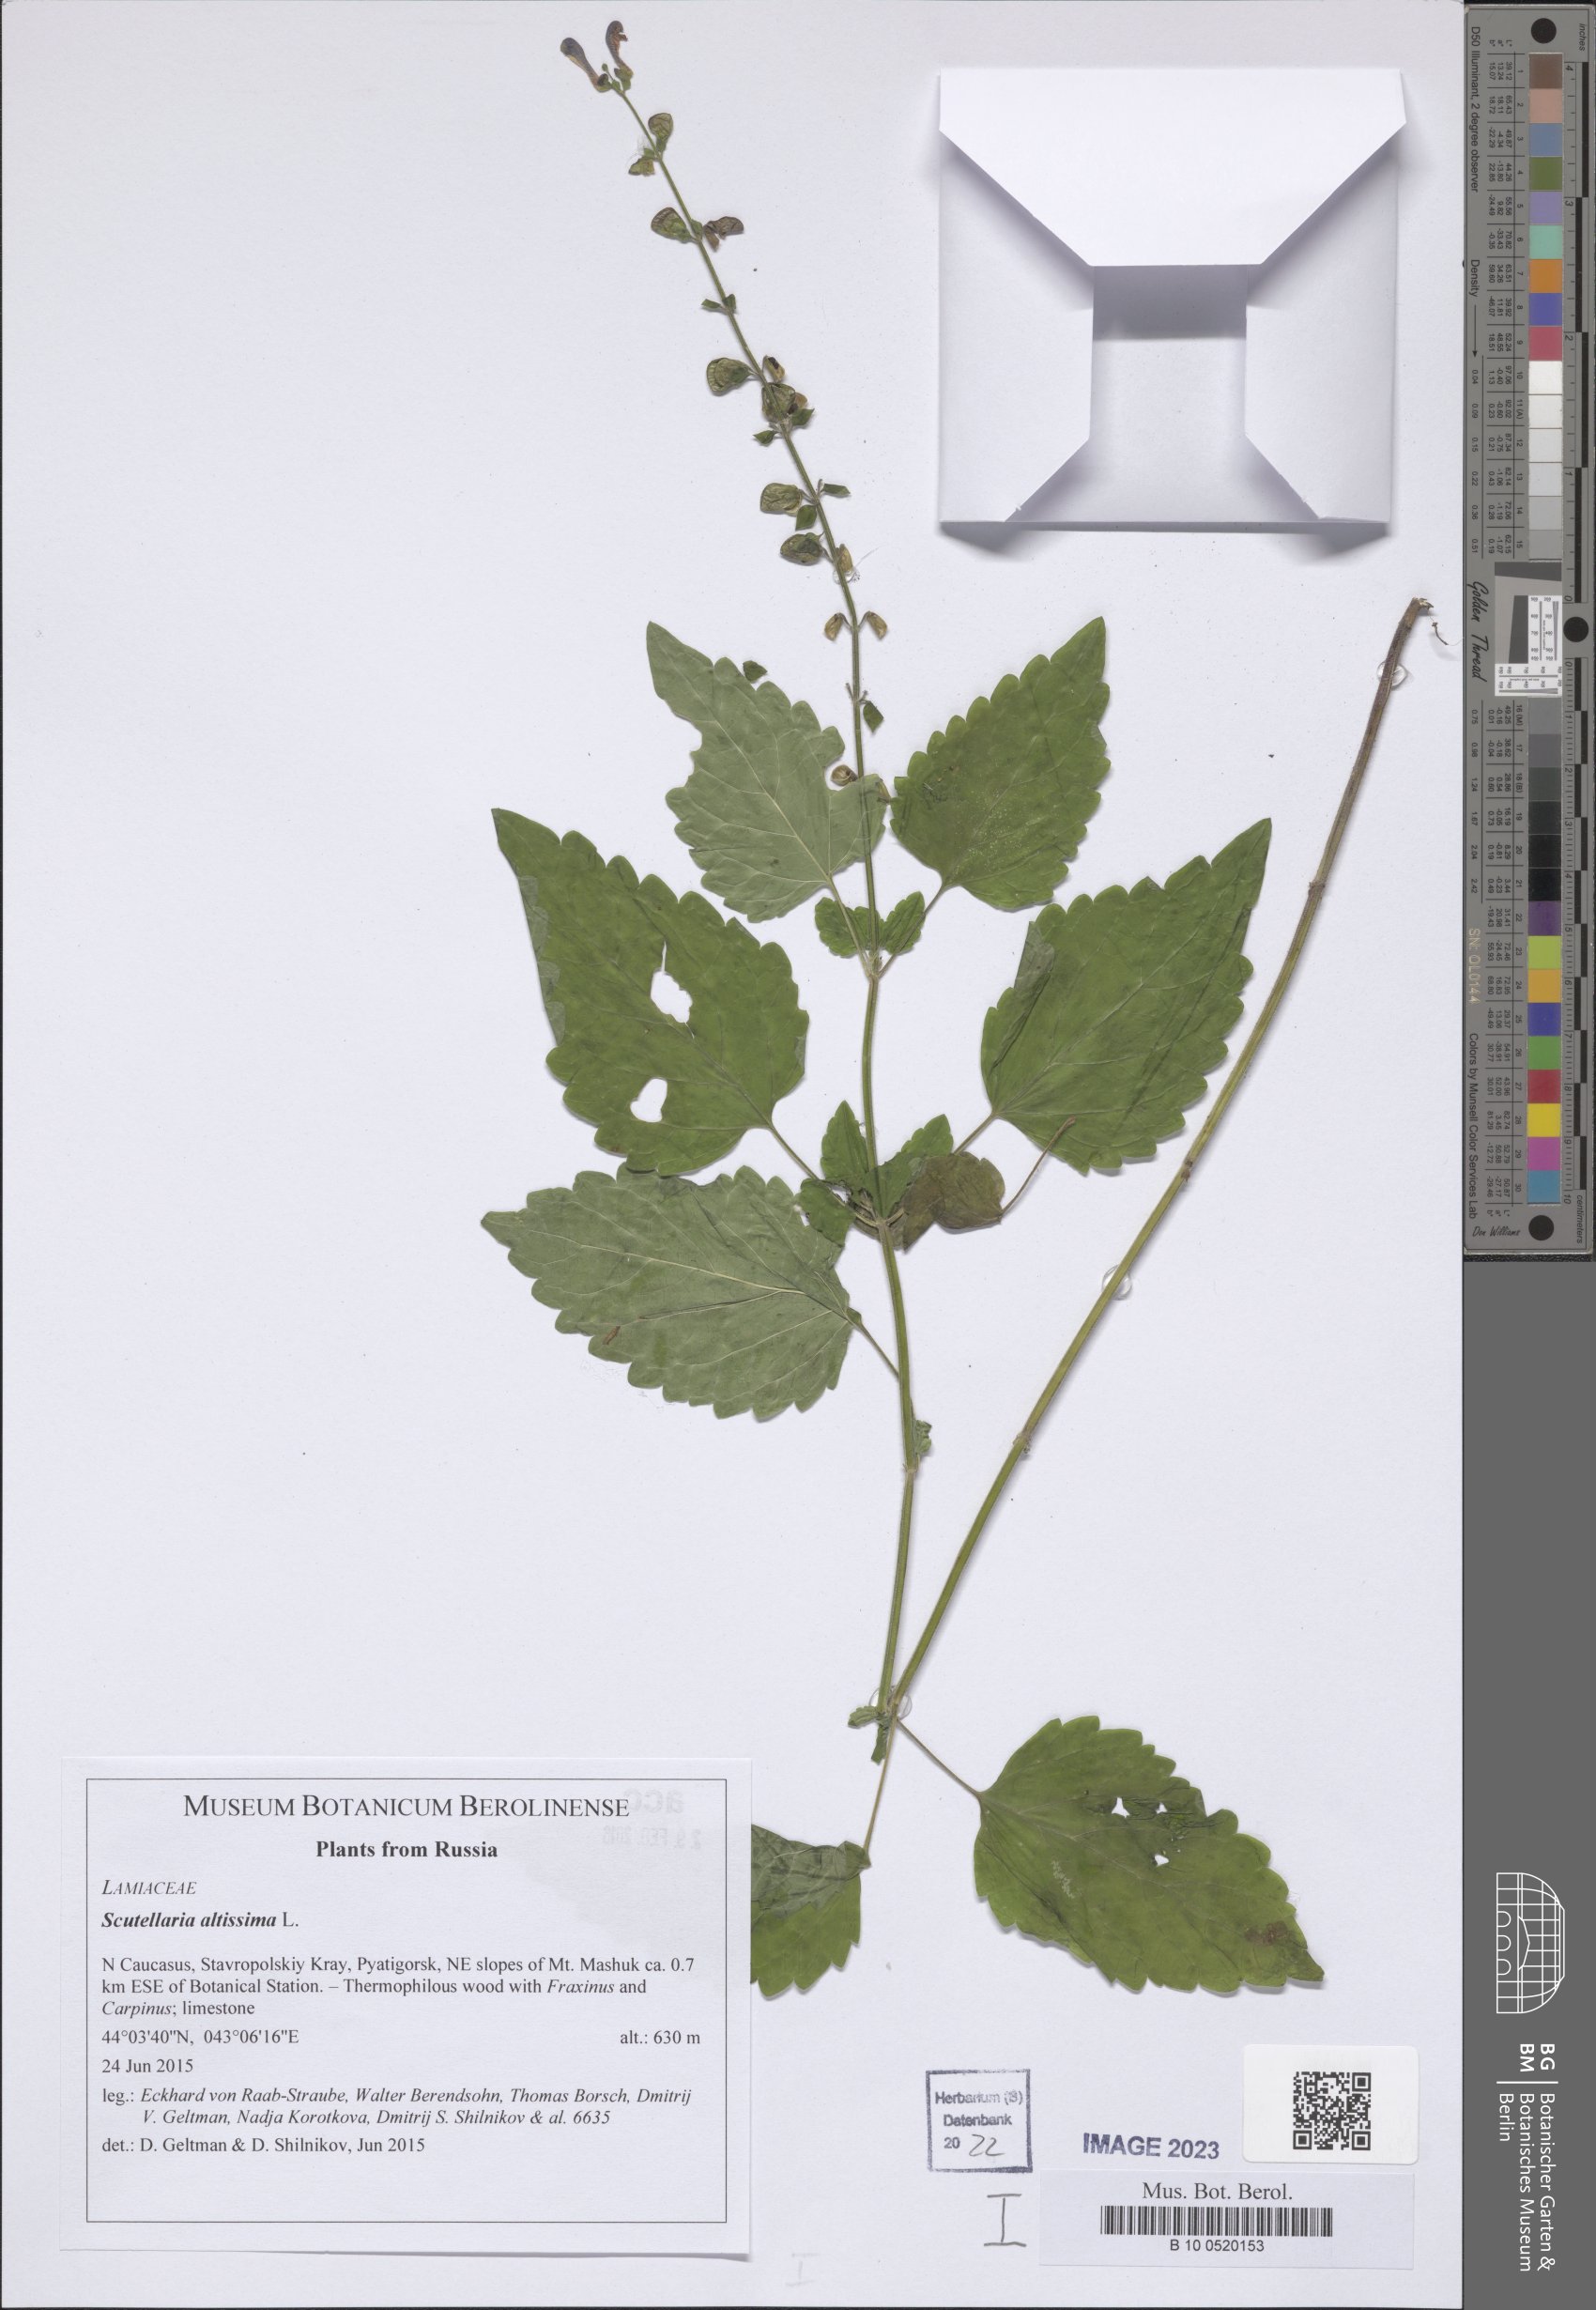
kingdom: Plantae
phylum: Tracheophyta
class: Magnoliopsida
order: Lamiales
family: Lamiaceae
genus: Scutellaria
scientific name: Scutellaria altissima
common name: Somerset skullcap
